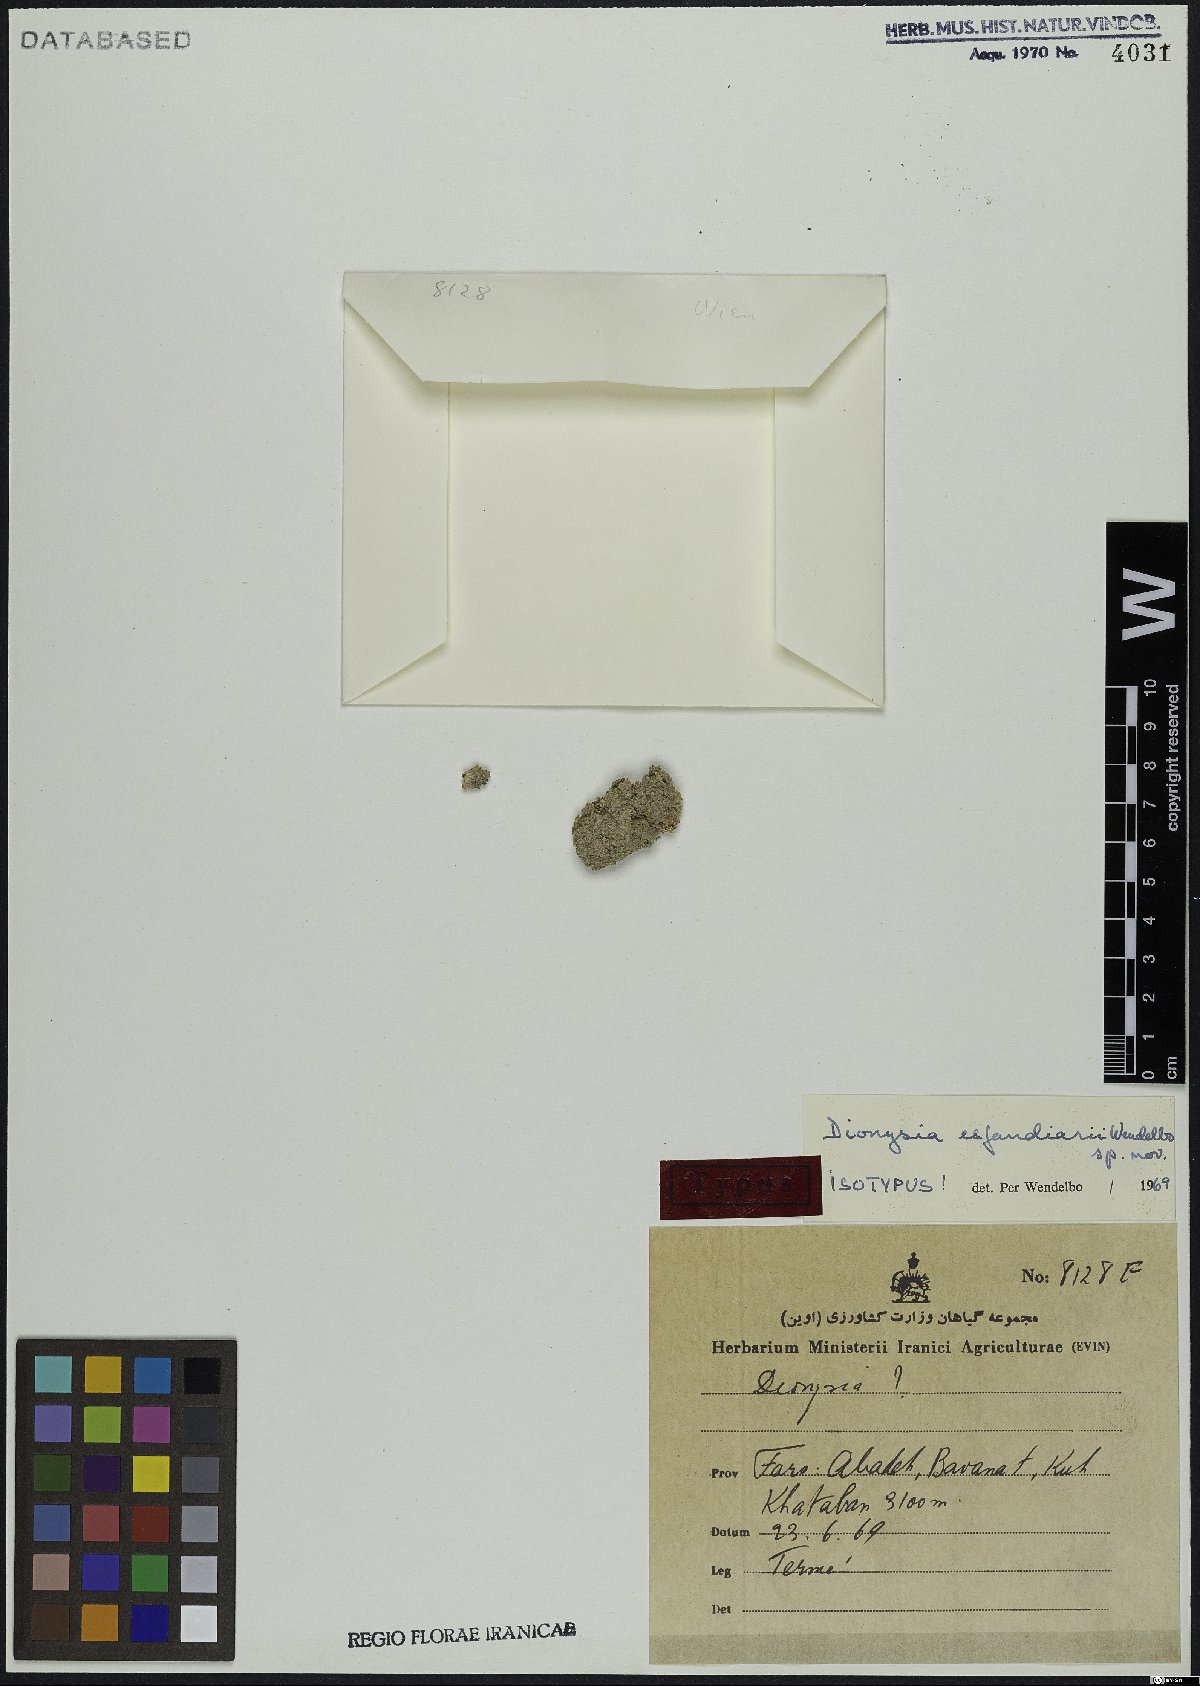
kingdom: Plantae
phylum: Tracheophyta
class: Magnoliopsida
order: Ericales
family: Primulaceae
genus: Dionysia
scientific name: Dionysia esfandiarii
